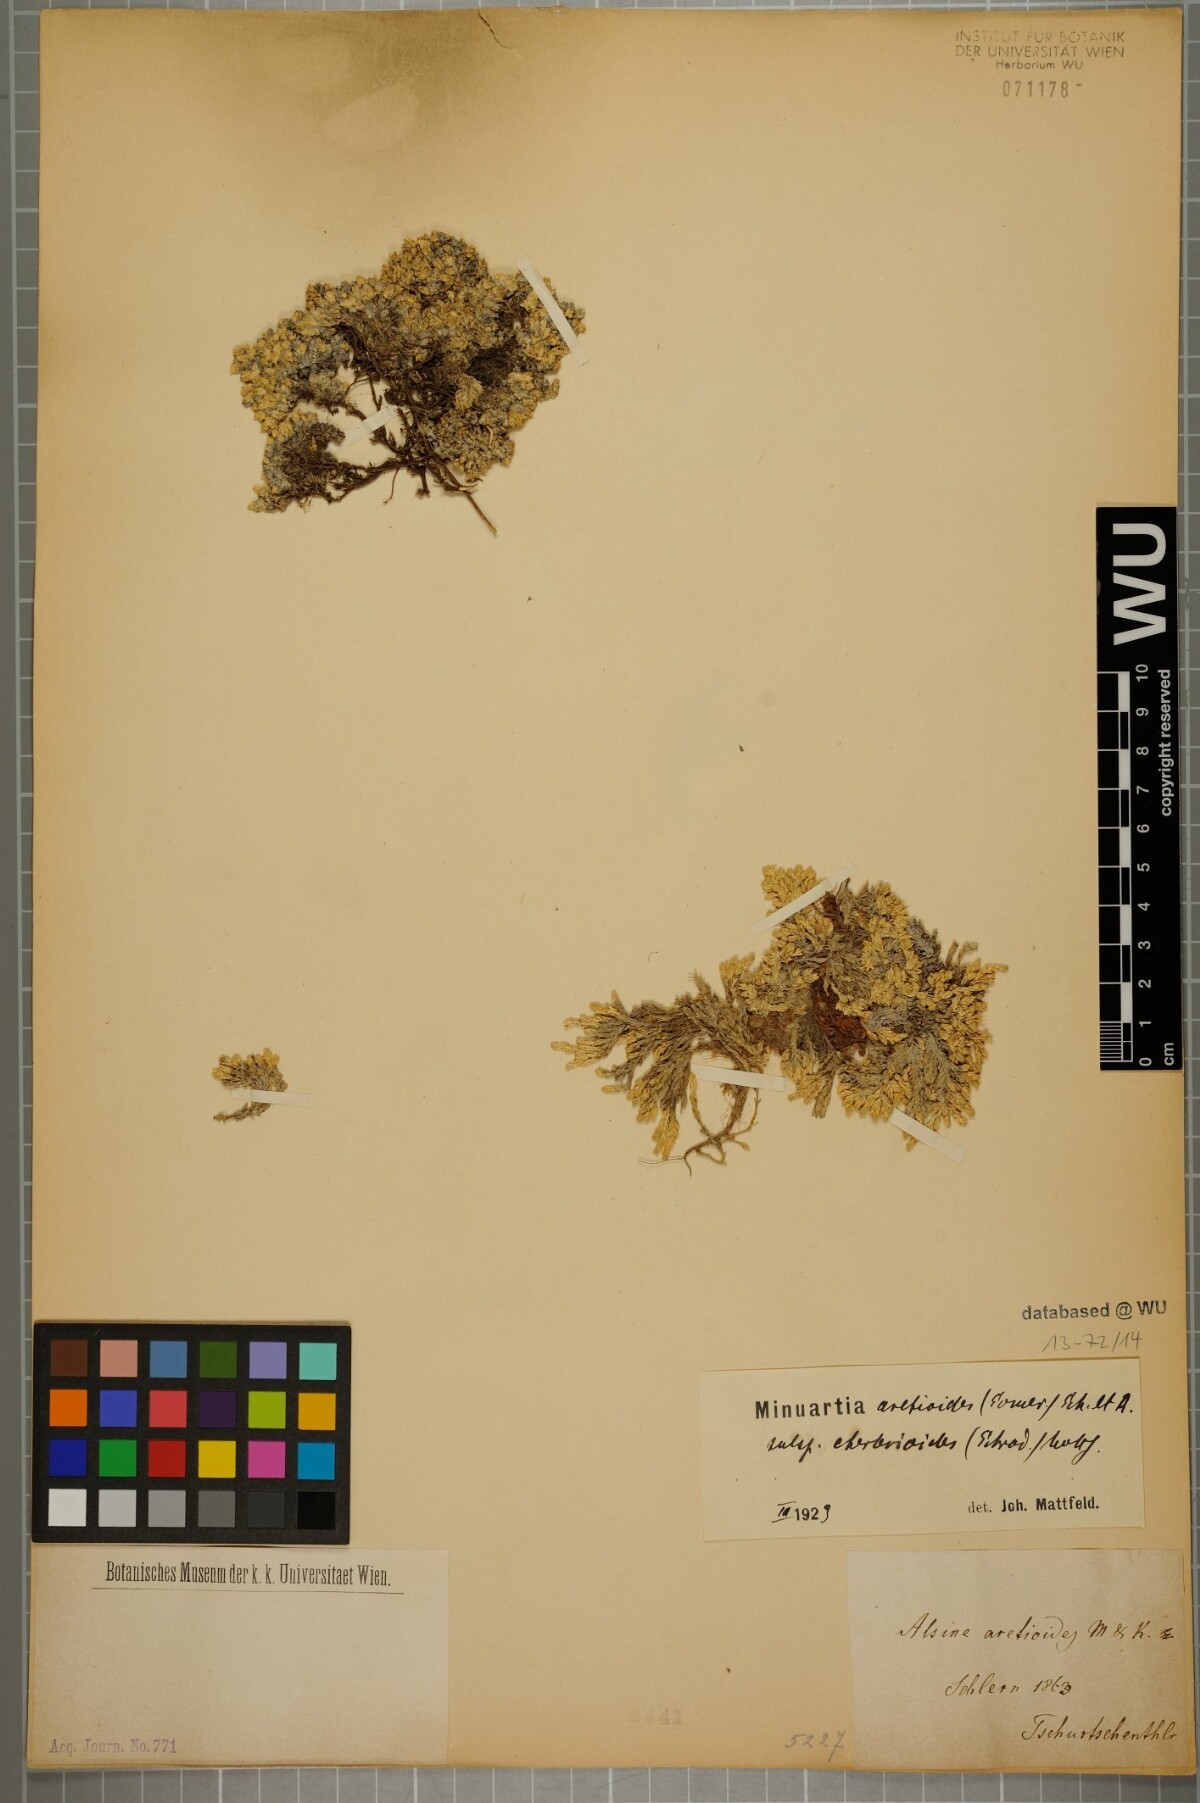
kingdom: Plantae
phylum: Tracheophyta
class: Magnoliopsida
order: Caryophyllales
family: Caryophyllaceae
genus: Facchinia
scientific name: Facchinia cherlerioides
